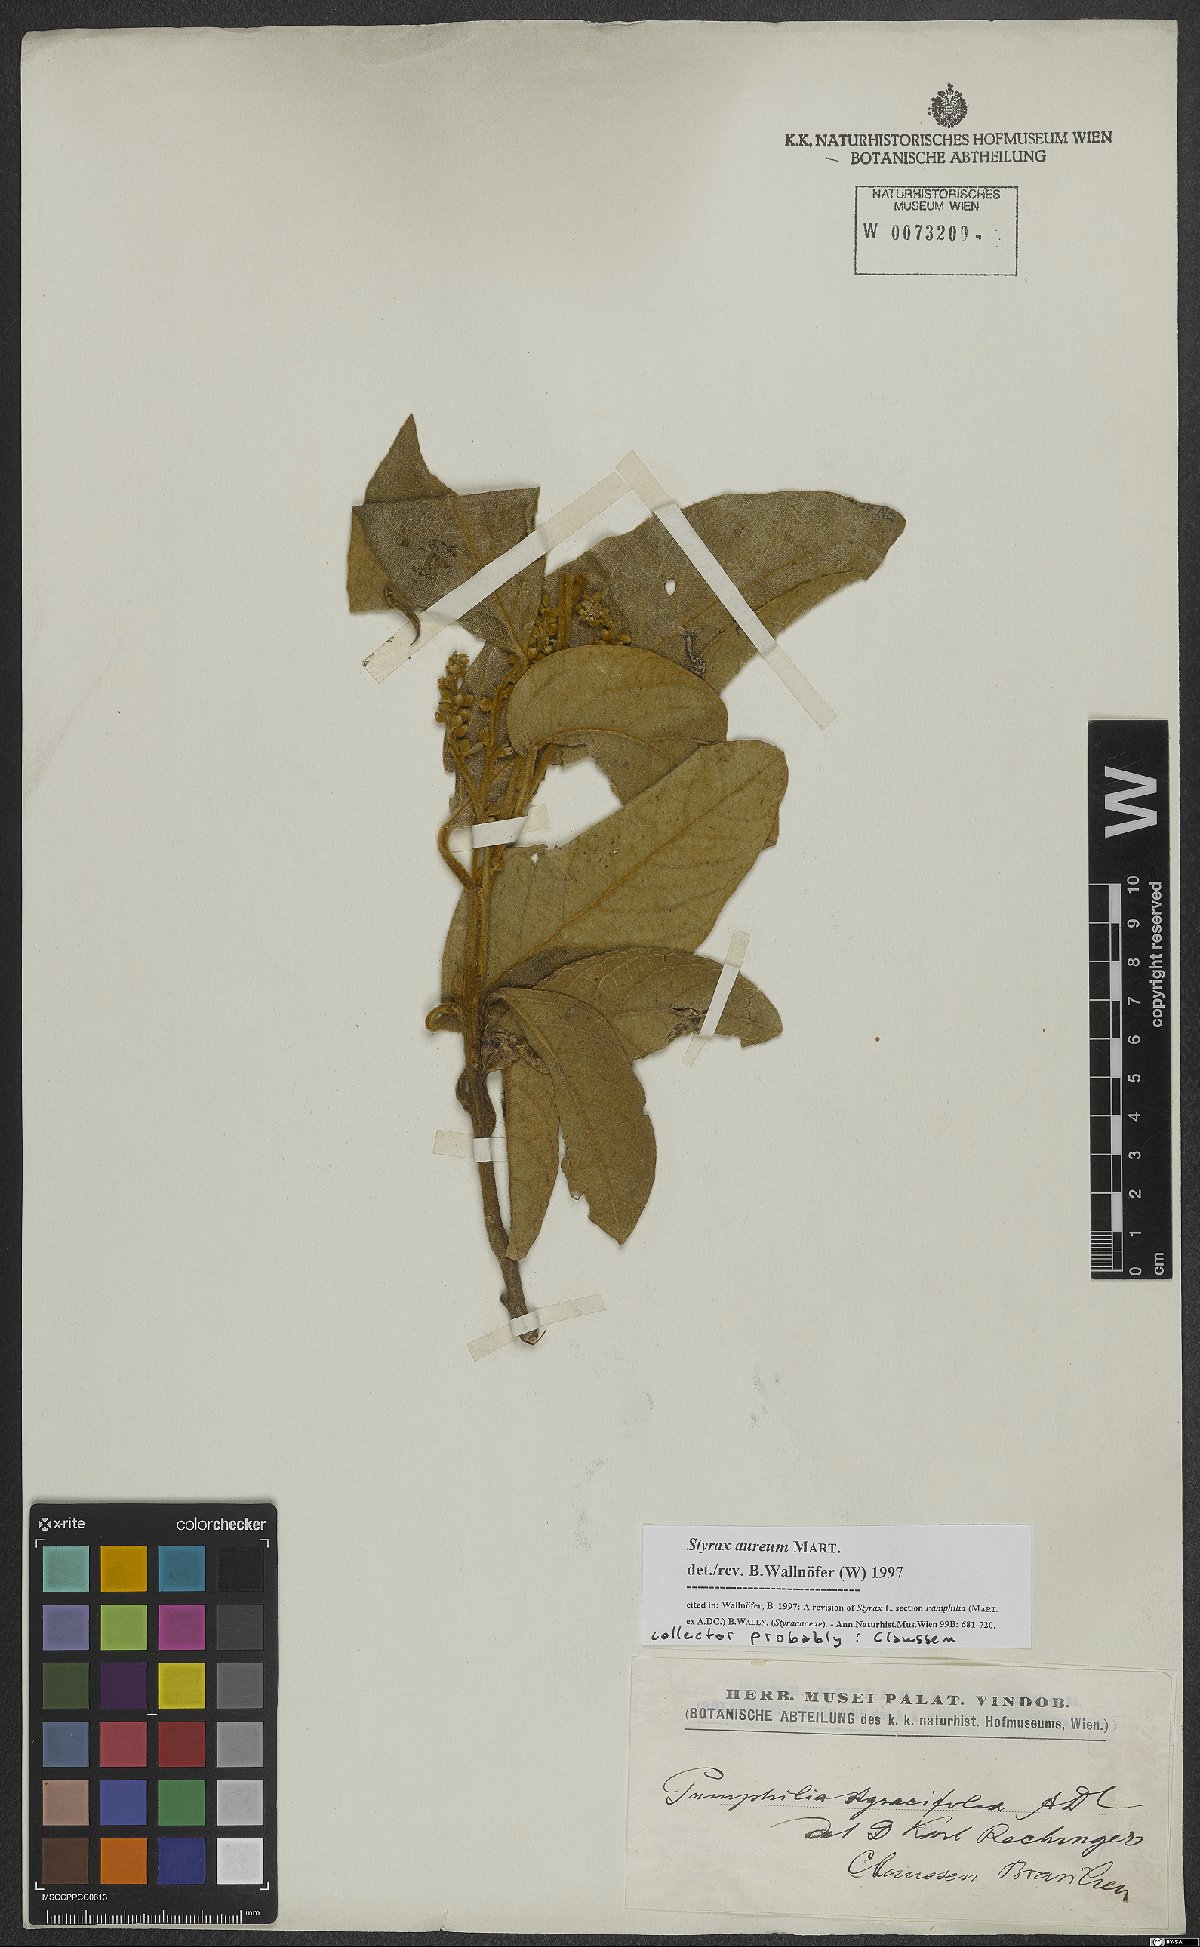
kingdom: Plantae
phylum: Tracheophyta
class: Magnoliopsida
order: Ericales
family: Styracaceae
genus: Styrax
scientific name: Styrax aureus
